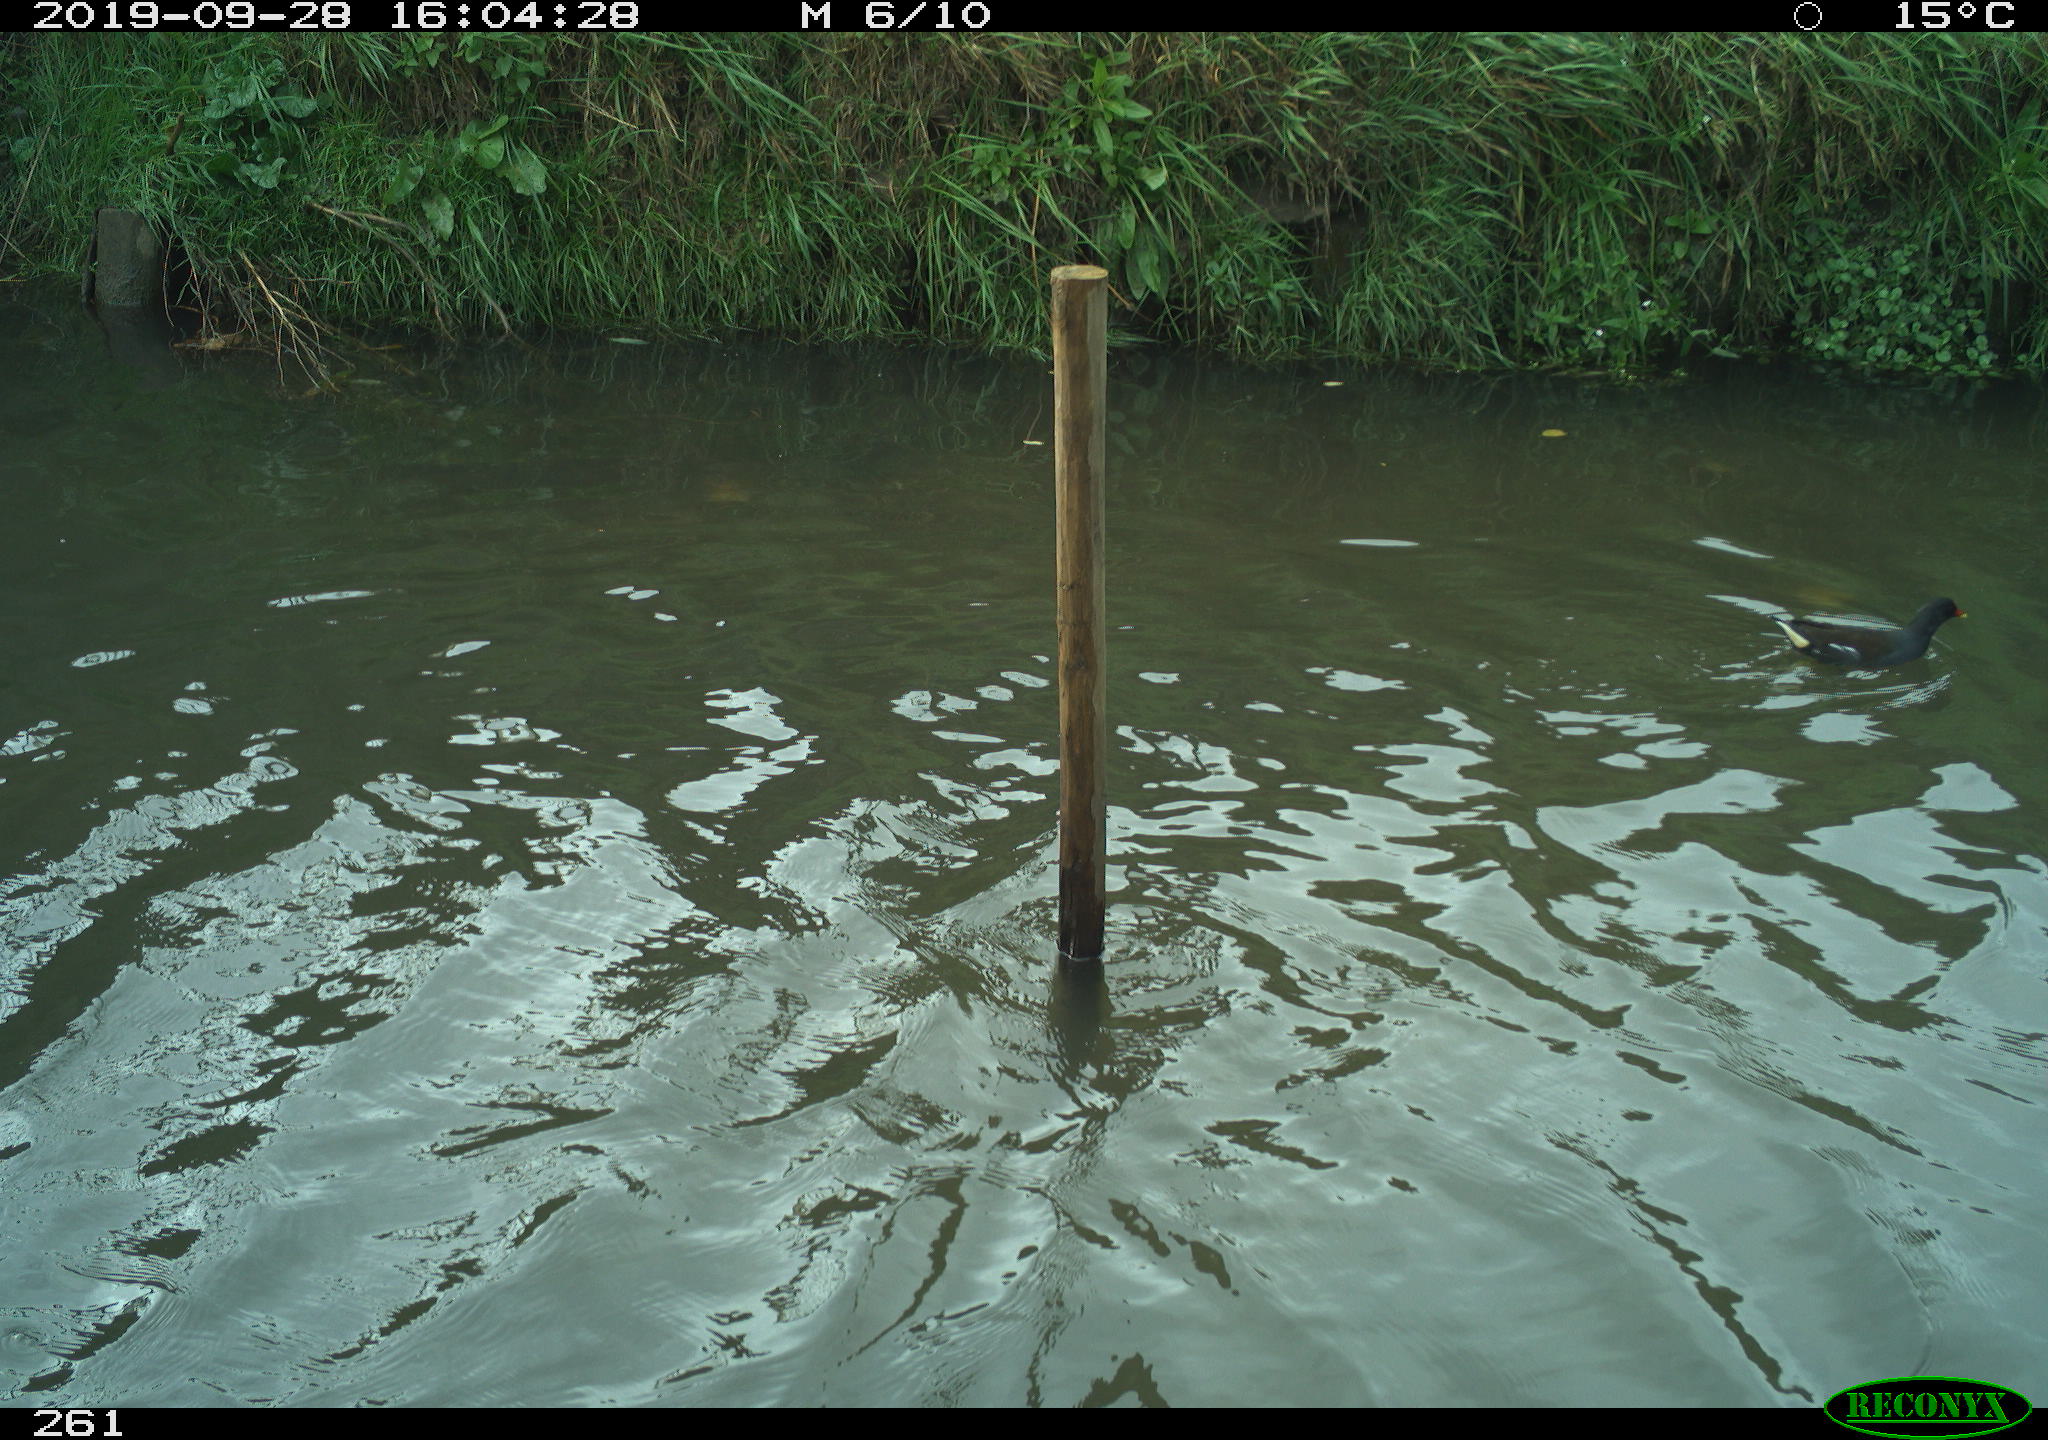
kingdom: Animalia
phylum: Chordata
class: Aves
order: Gruiformes
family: Rallidae
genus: Gallinula
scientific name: Gallinula chloropus
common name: Common moorhen
